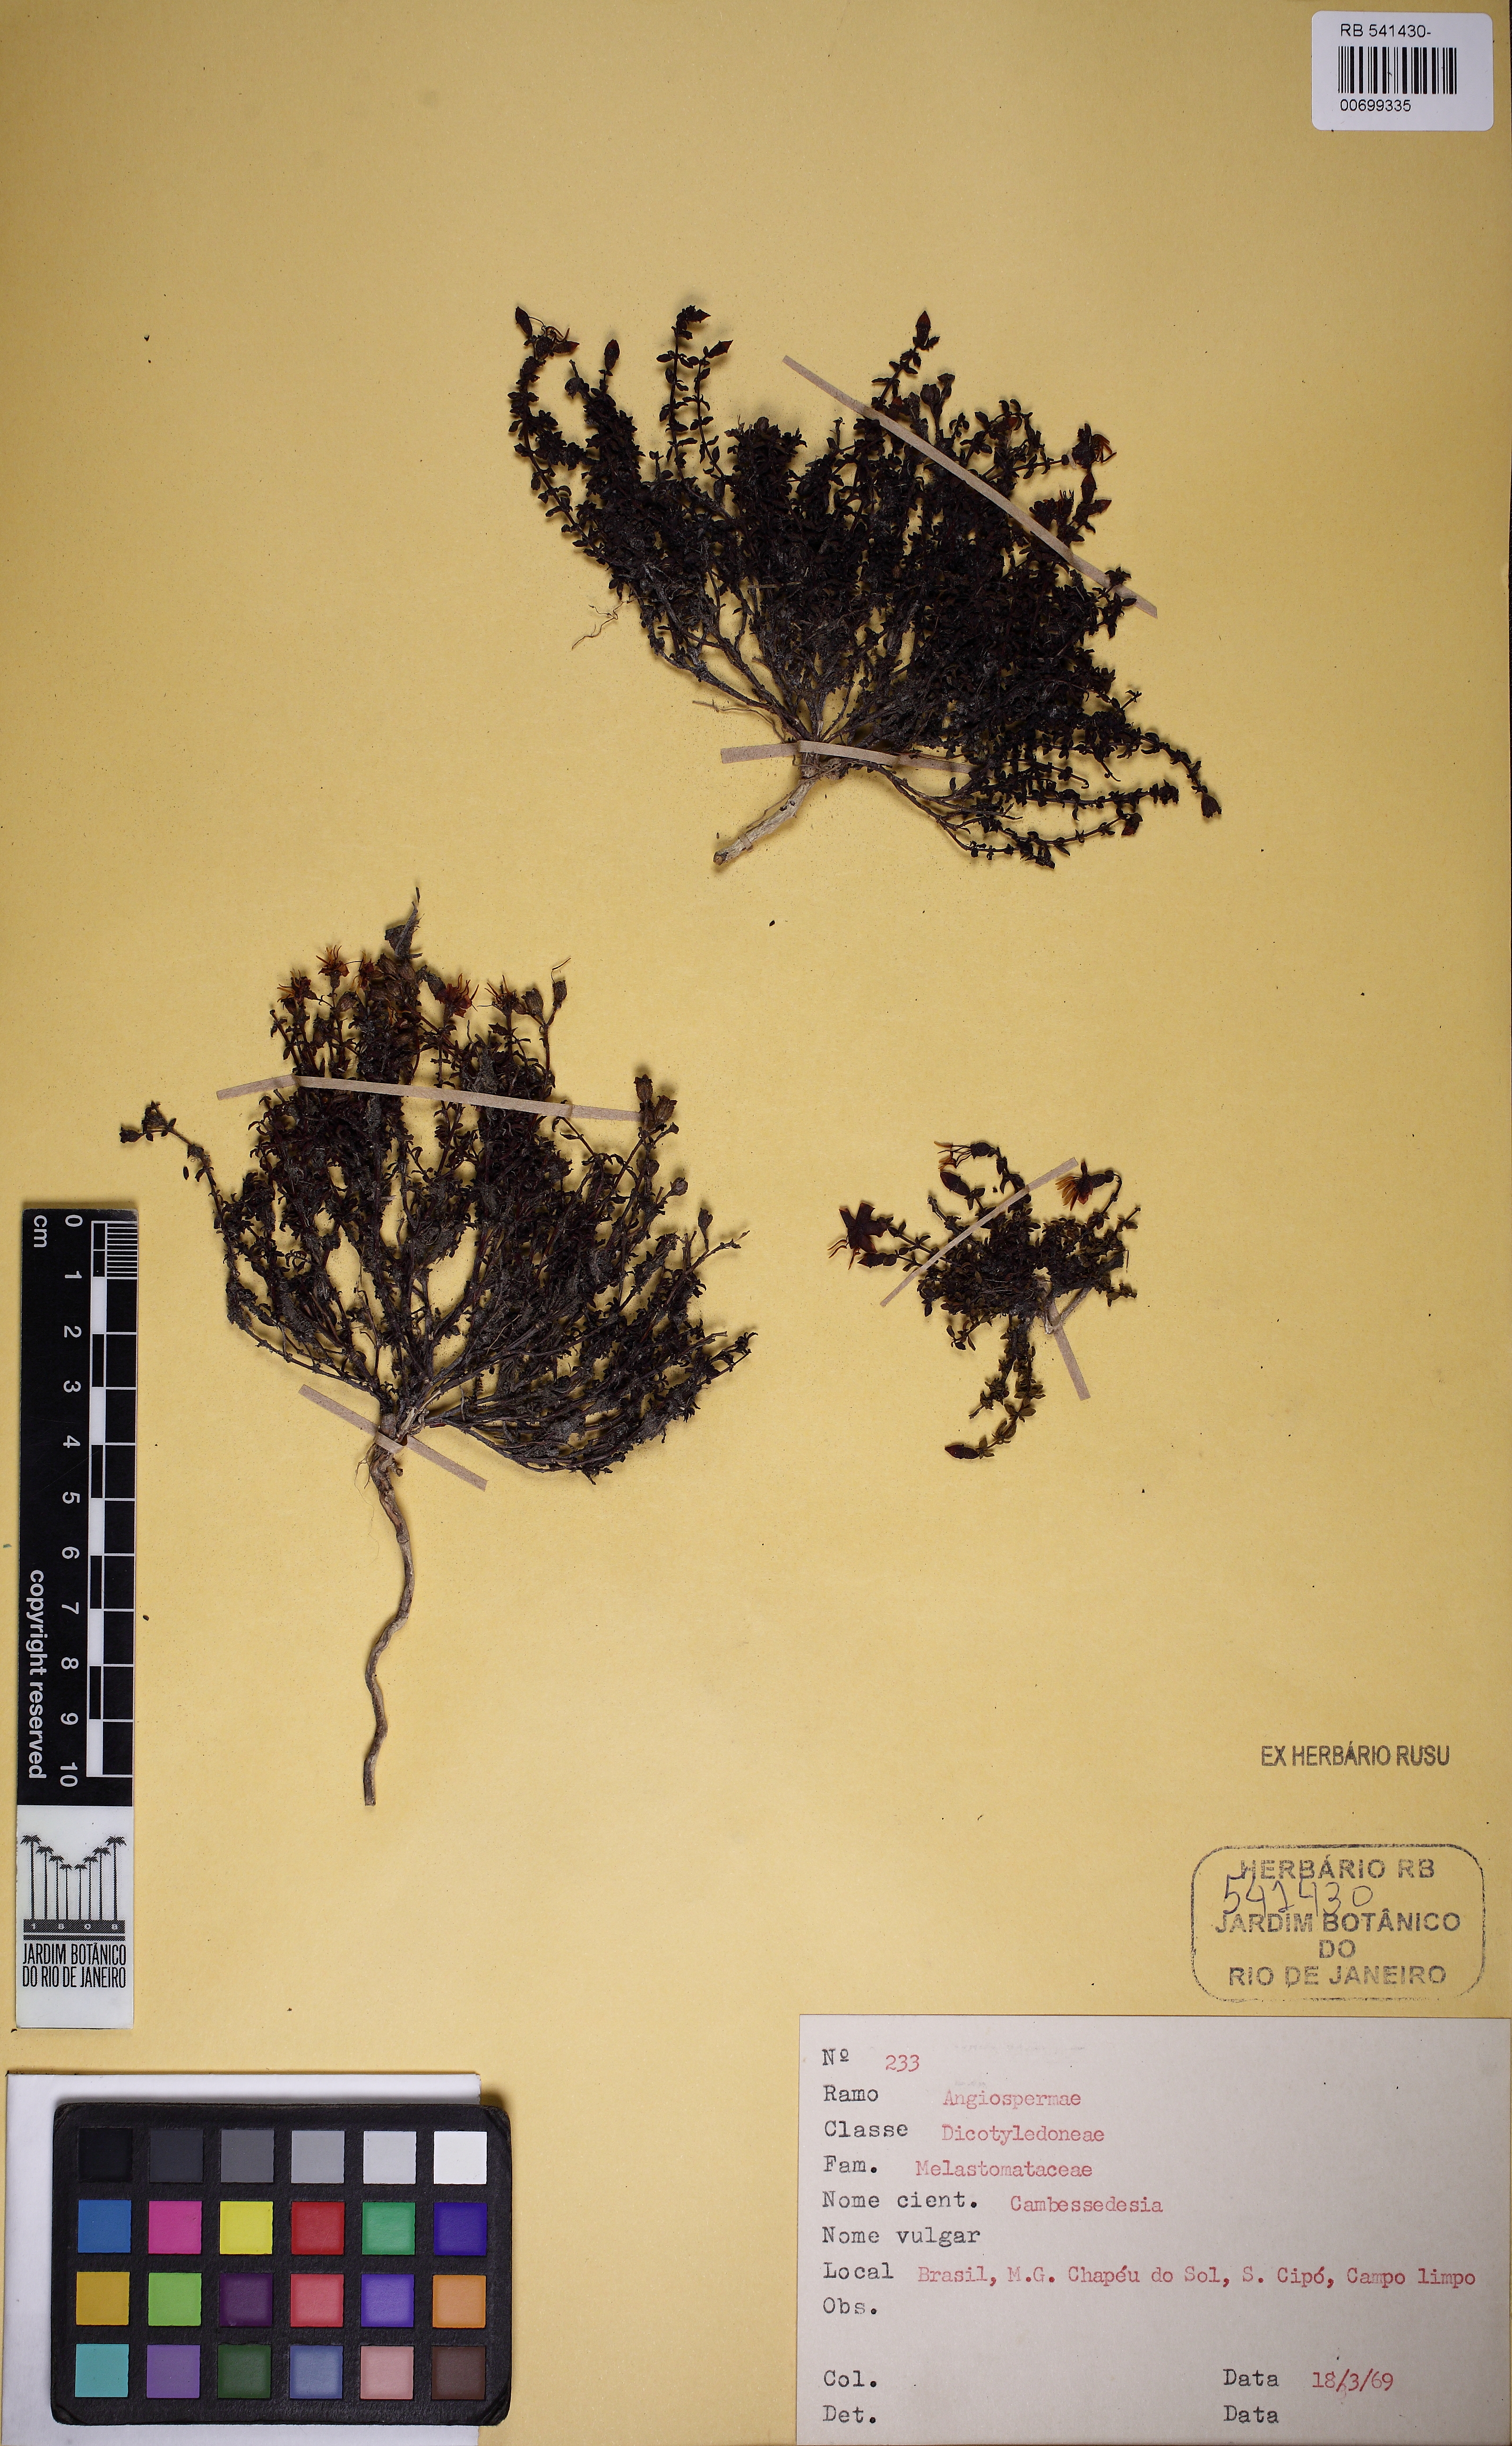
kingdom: Plantae
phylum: Tracheophyta
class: Magnoliopsida
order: Myrtales
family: Melastomataceae
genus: Cambessedesia
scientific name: Cambessedesia
